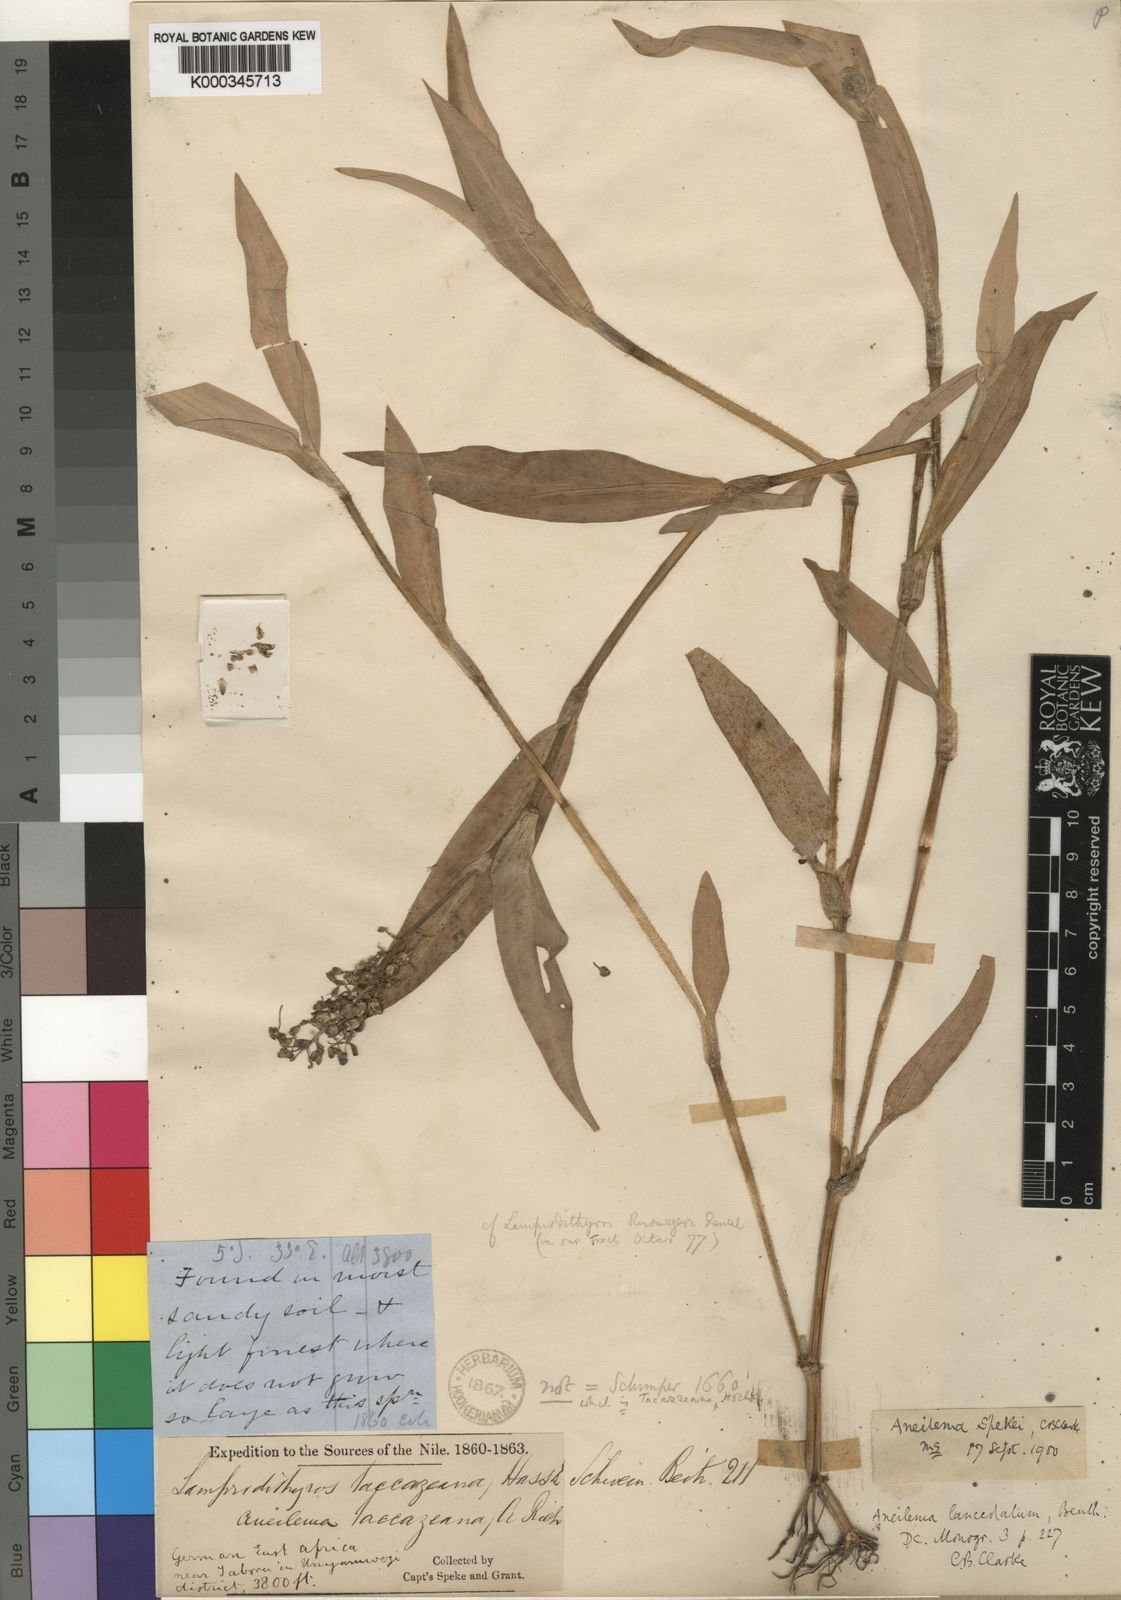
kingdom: Plantae
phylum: Tracheophyta
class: Liliopsida
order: Commelinales
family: Commelinaceae
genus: Aneilema
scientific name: Aneilema spekei
